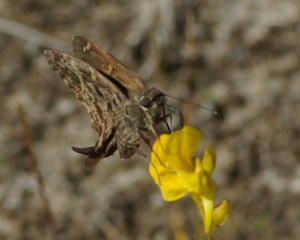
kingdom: Animalia
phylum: Arthropoda
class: Insecta
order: Lepidoptera
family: Hesperiidae
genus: Urbanus
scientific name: Urbanus dorantes
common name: Dorantes Longtail
